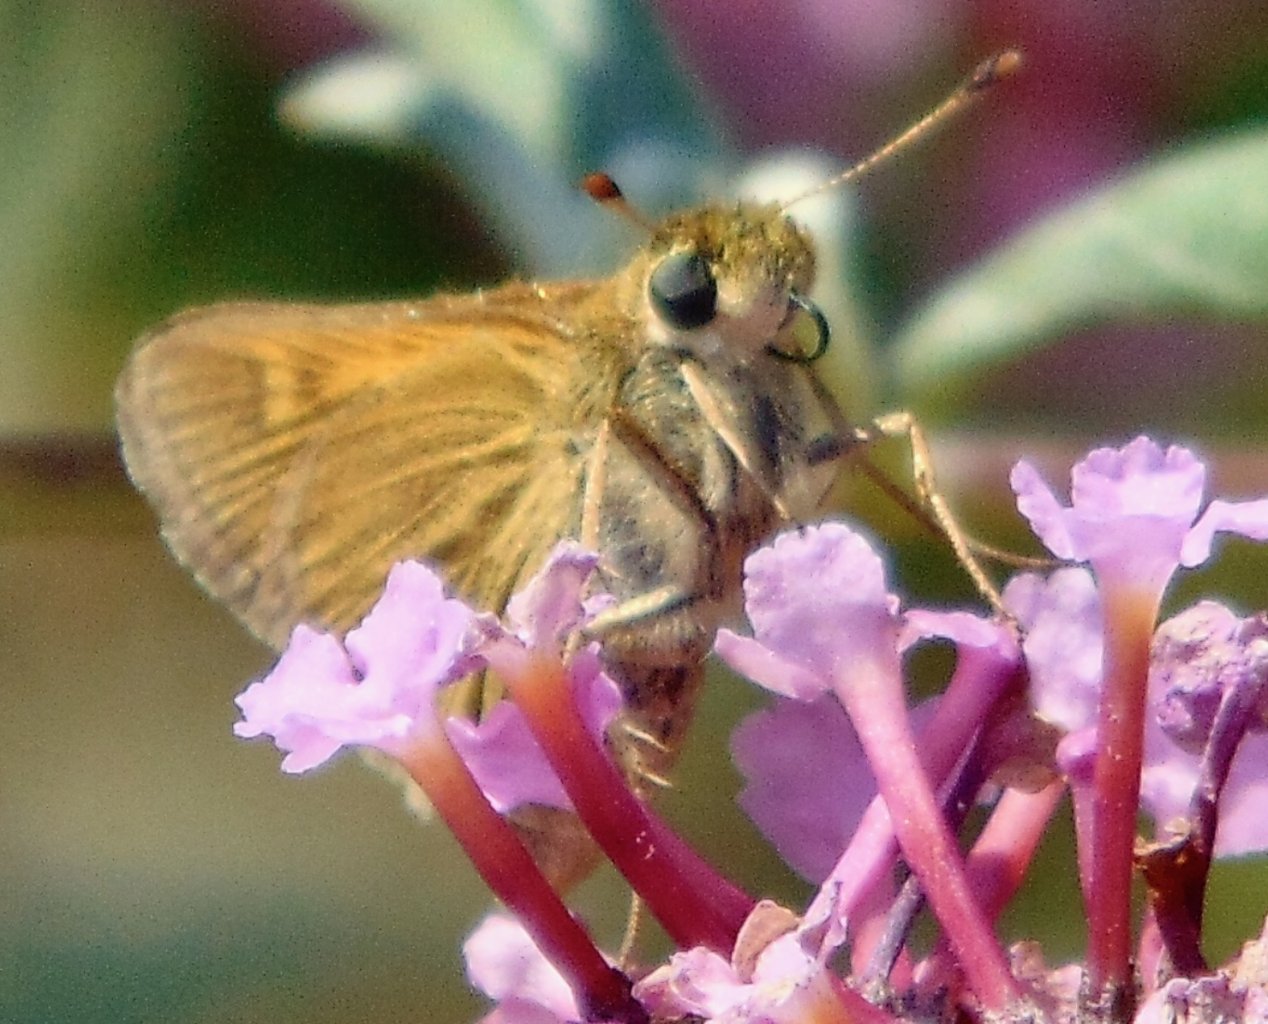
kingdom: Animalia
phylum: Arthropoda
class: Insecta
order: Lepidoptera
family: Hesperiidae
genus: Polites
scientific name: Polites themistocles
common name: Tawny-edged Skipper
